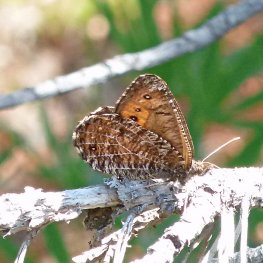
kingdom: Animalia
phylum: Arthropoda
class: Insecta
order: Lepidoptera
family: Nymphalidae
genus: Oeneis
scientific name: Oeneis chryxus
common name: Chryxus Arctic
